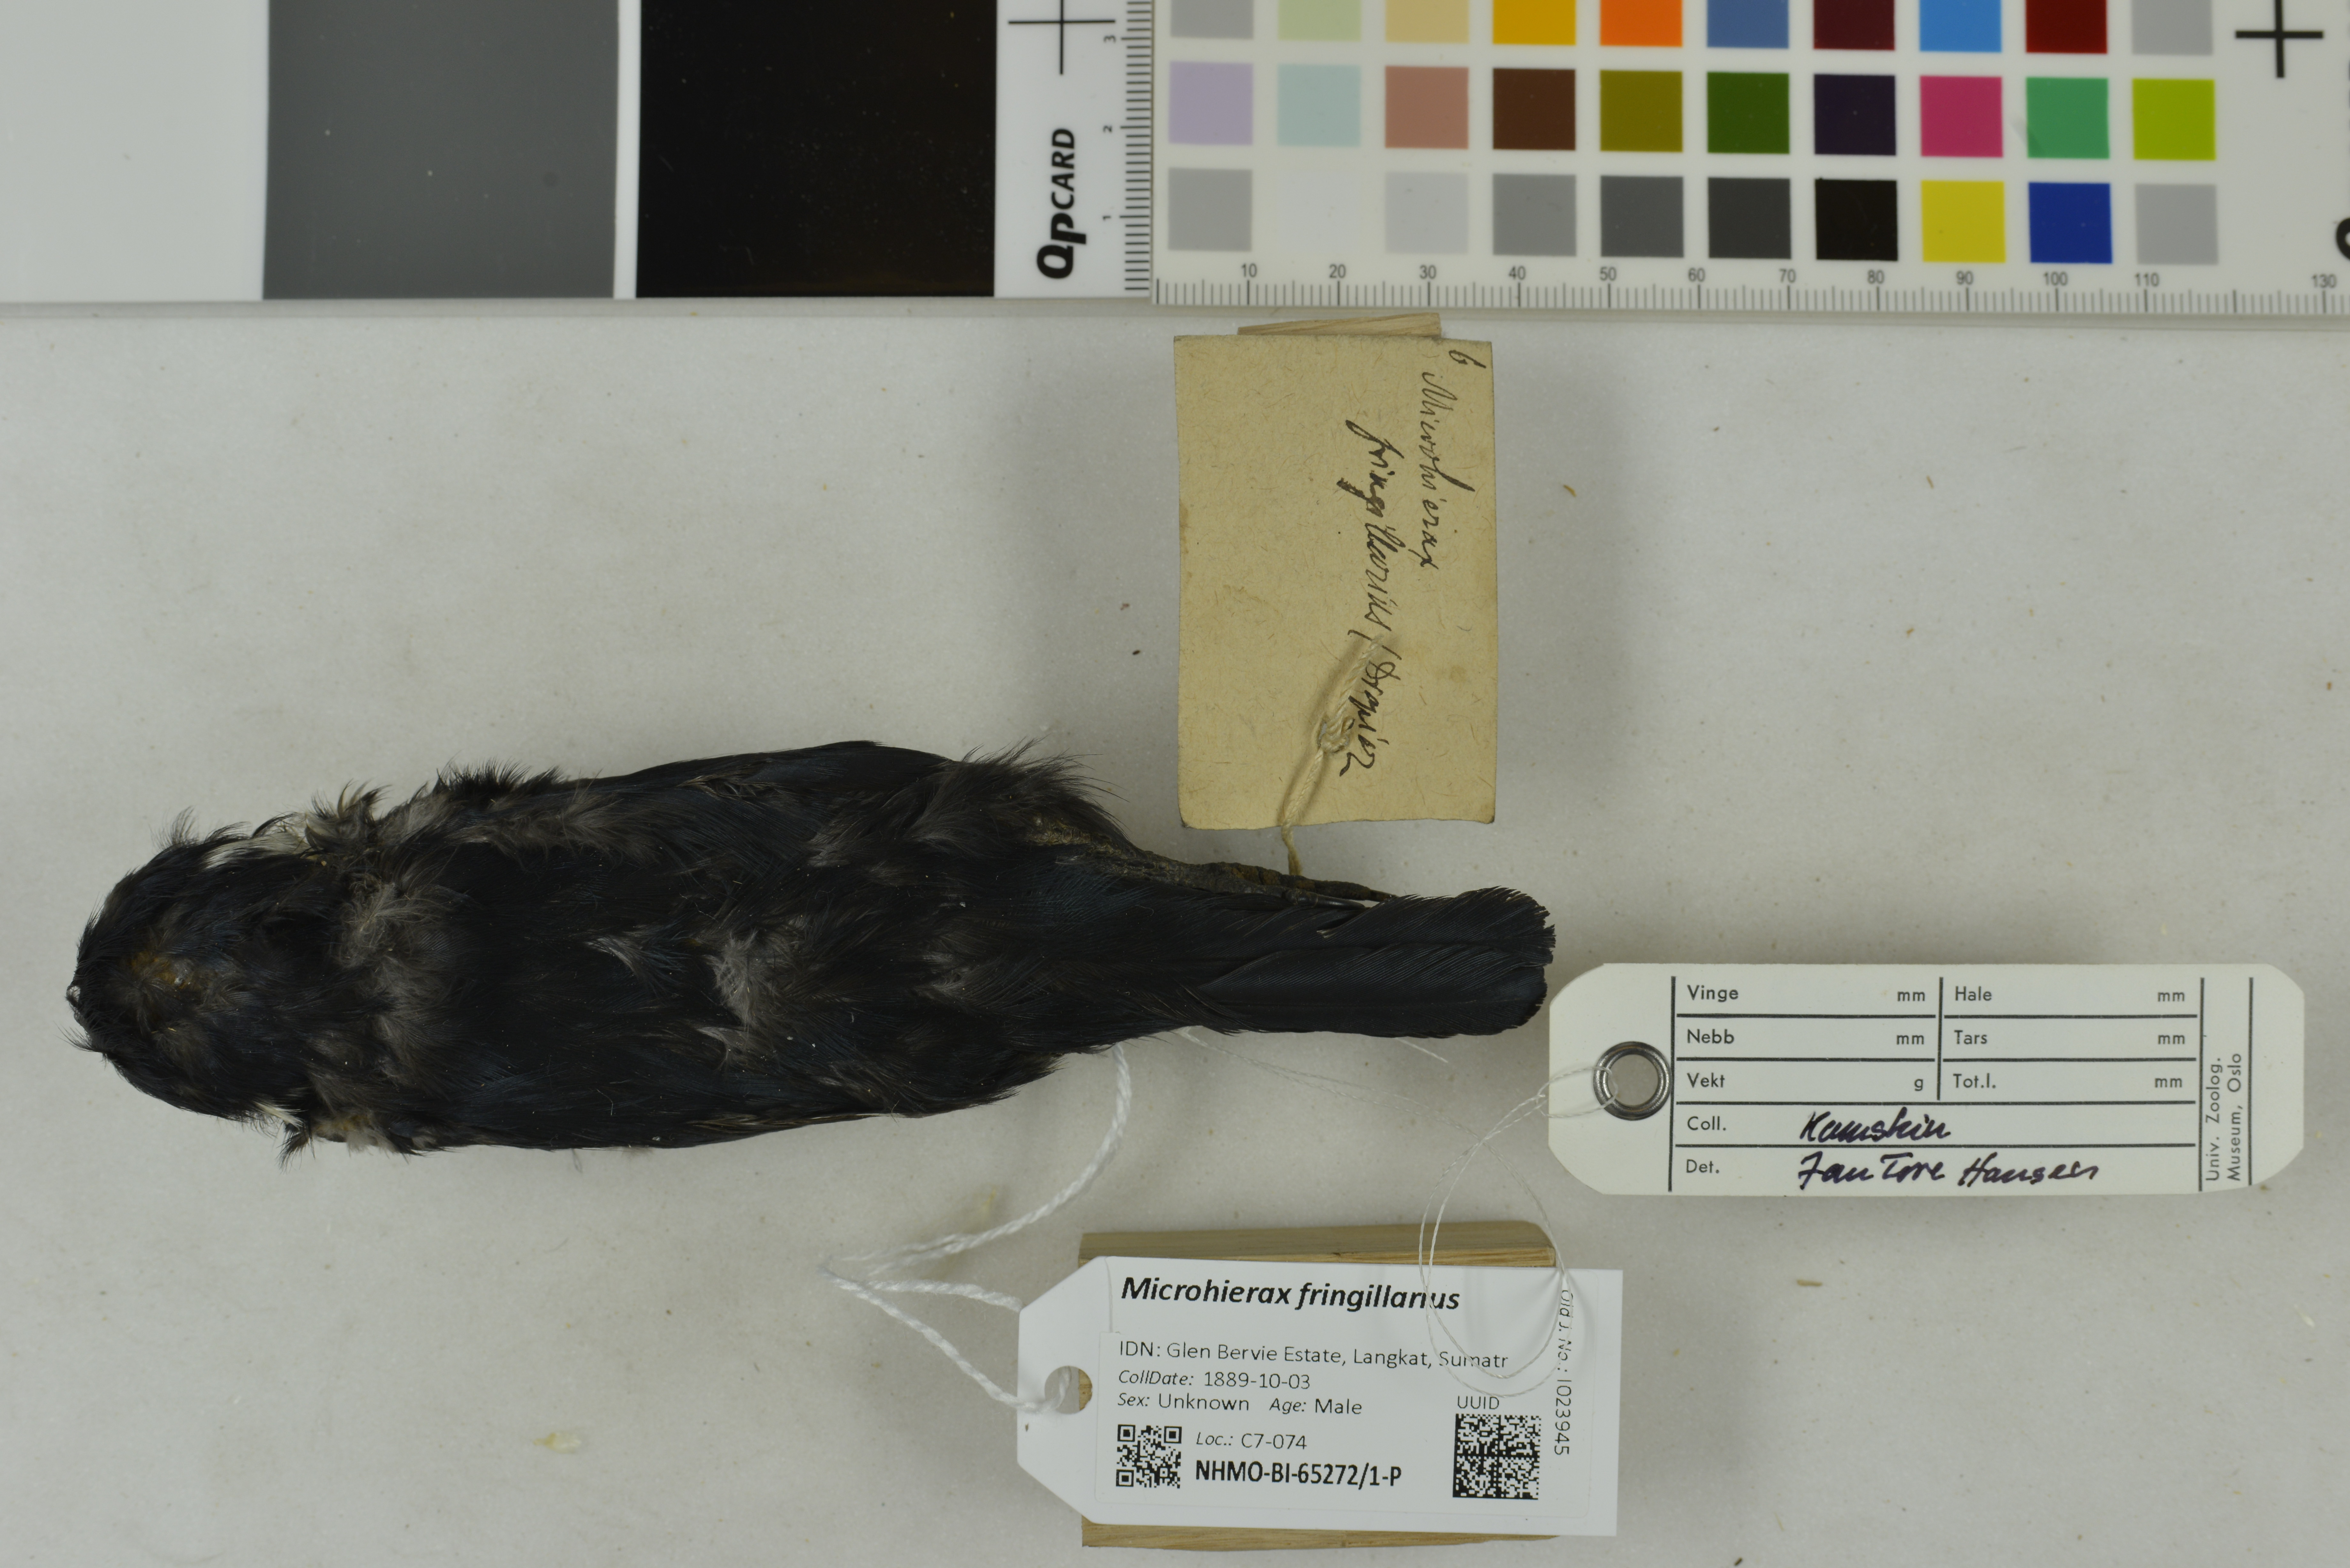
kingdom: Animalia
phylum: Chordata
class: Aves
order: Falconiformes
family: Falconidae
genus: Microhierax
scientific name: Microhierax fringillarius
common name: Black-thighed falconet
